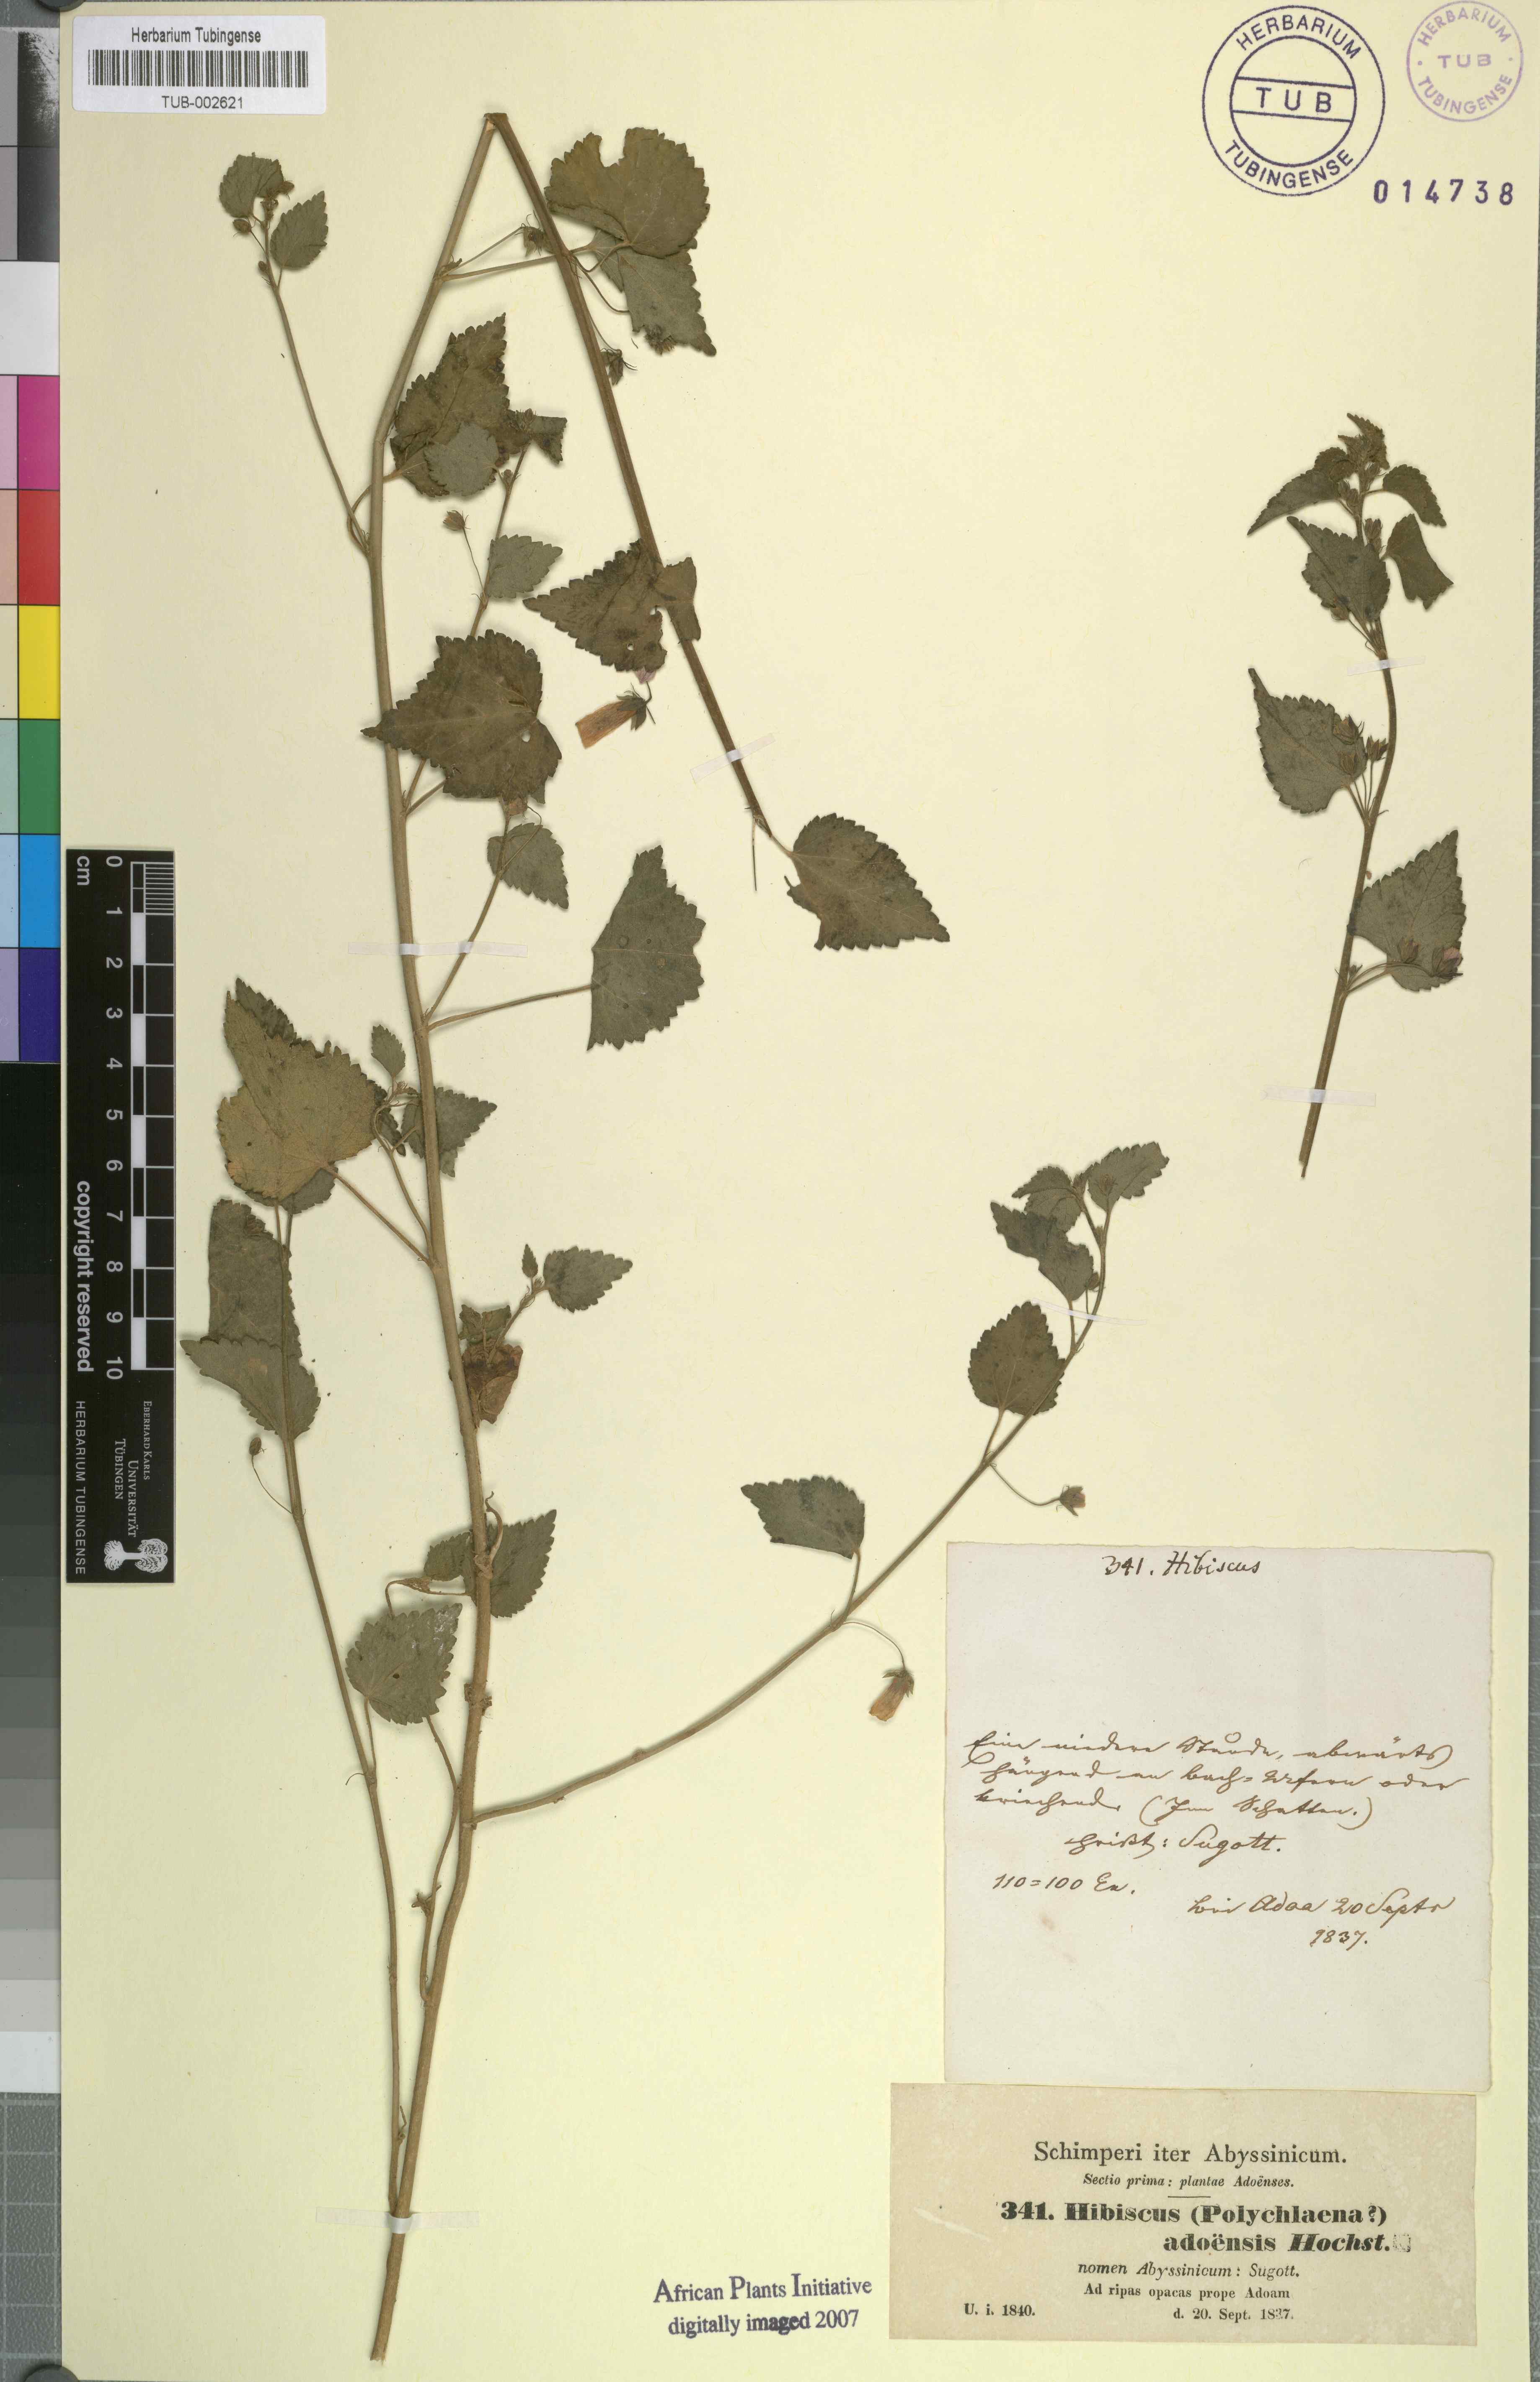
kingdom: Plantae
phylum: Tracheophyta
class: Magnoliopsida
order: Malvales
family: Malvaceae
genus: Kosteletzkya
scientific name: Kosteletzkya adoensis
